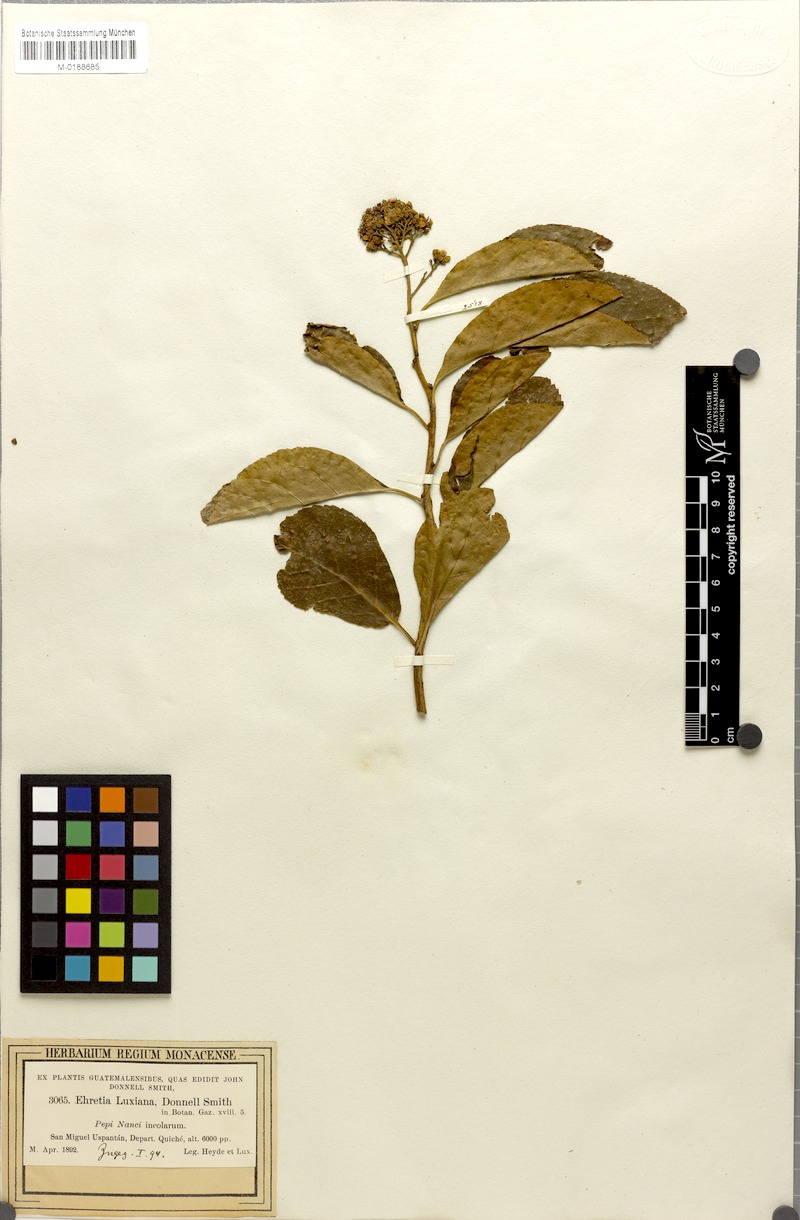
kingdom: Plantae
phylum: Tracheophyta
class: Magnoliopsida
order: Boraginales
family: Ehretiaceae
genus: Ehretia
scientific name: Ehretia latifolia
